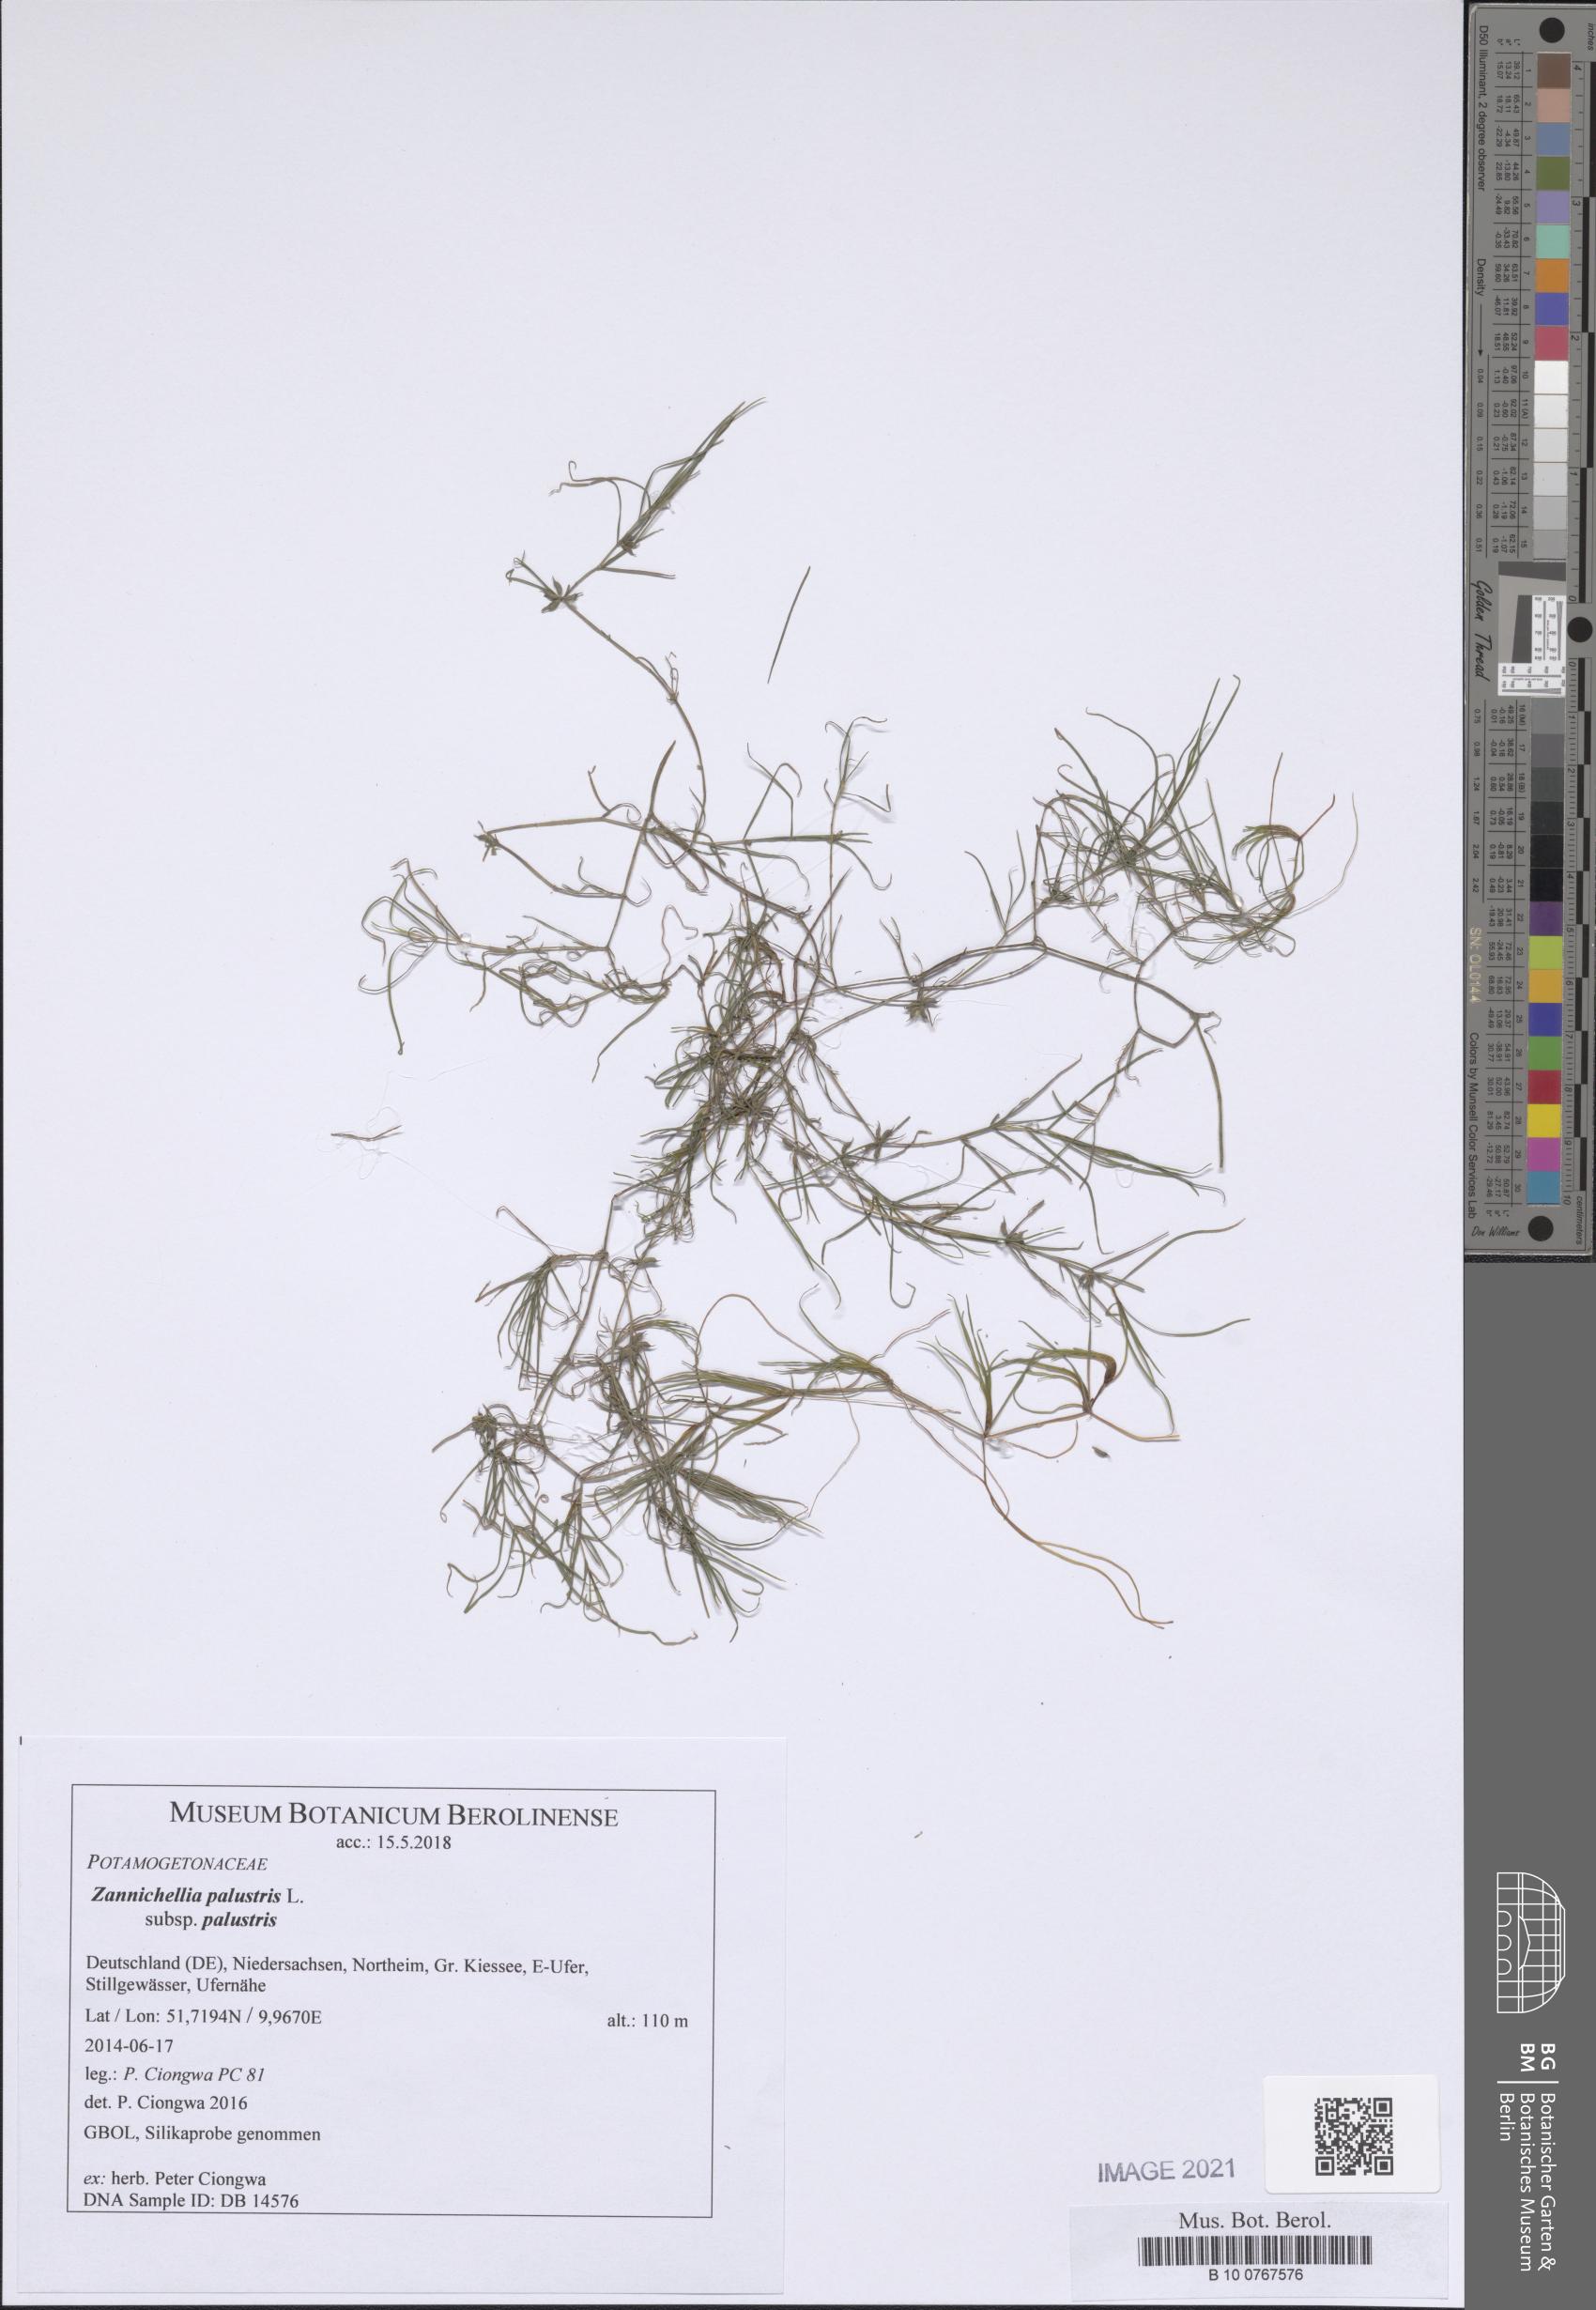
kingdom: Plantae
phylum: Tracheophyta
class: Liliopsida
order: Alismatales
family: Potamogetonaceae
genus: Zannichellia
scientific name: Zannichellia palustris
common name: Horned pondweed
